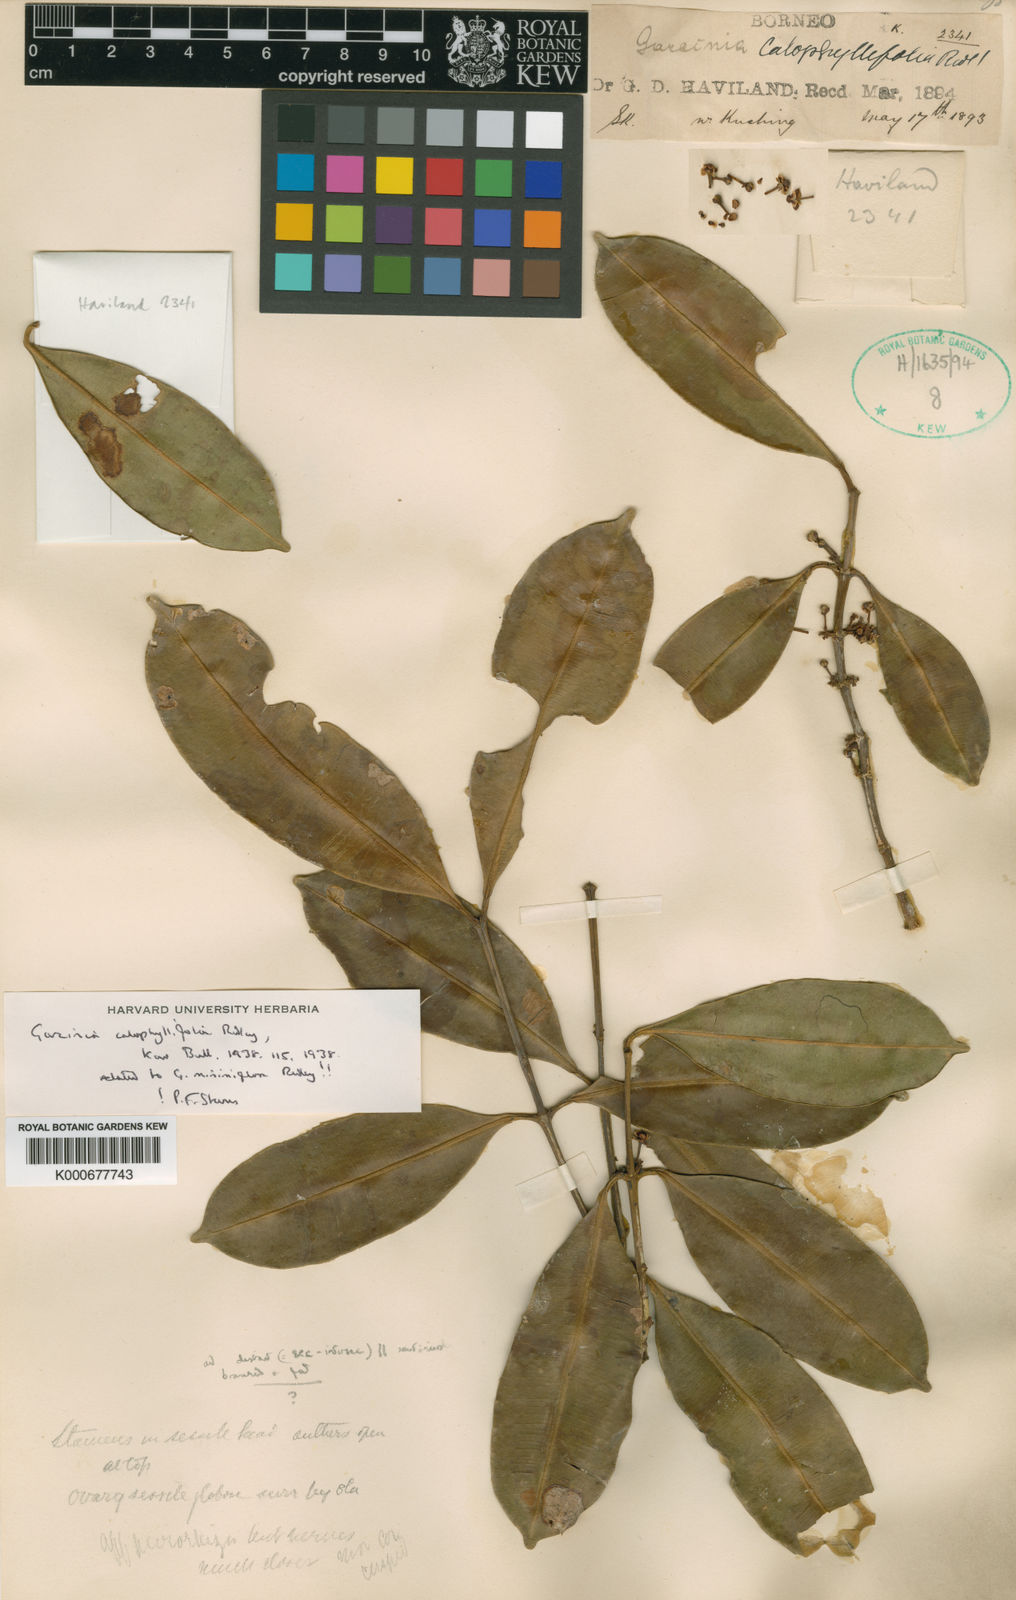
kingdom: Plantae
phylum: Tracheophyta
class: Magnoliopsida
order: Malpighiales
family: Clusiaceae
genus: Garcinia
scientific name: Garcinia calophyllifolia
